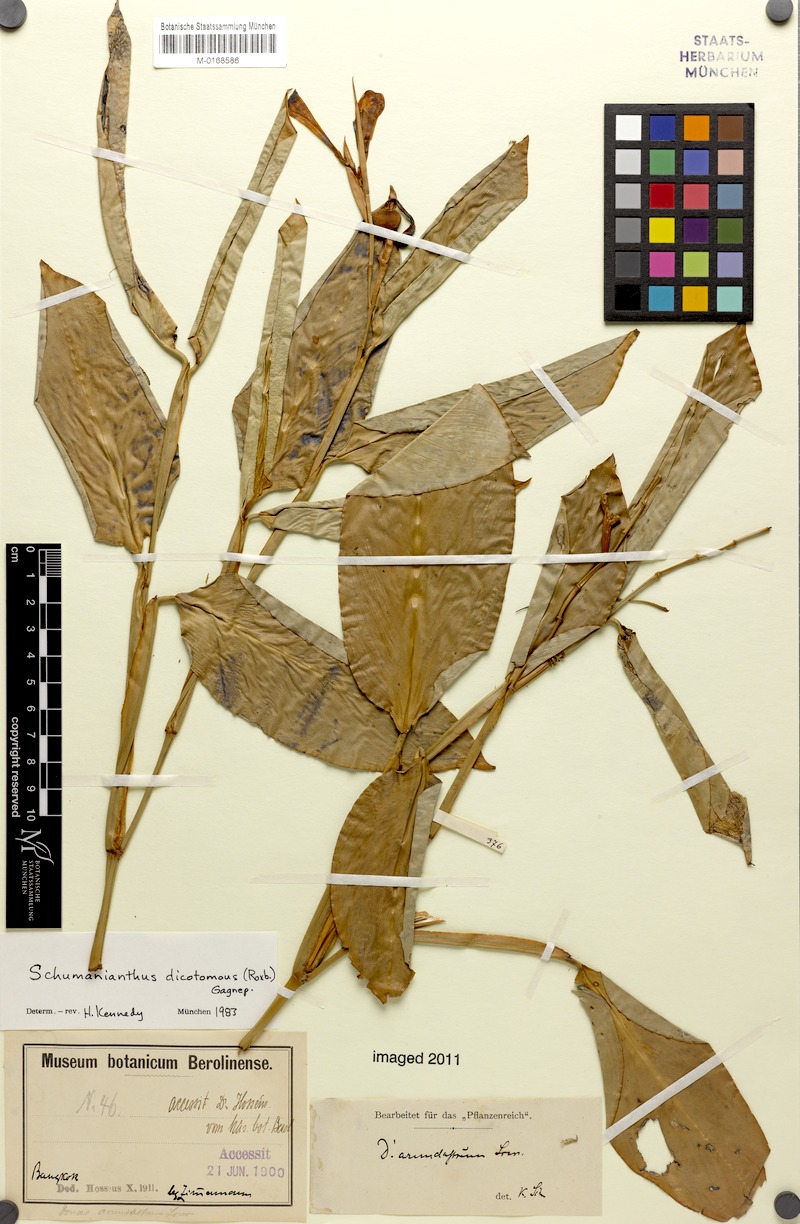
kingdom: Plantae
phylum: Tracheophyta
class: Liliopsida
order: Zingiberales
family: Marantaceae
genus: Schumannianthus
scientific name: Schumannianthus benthamianus
